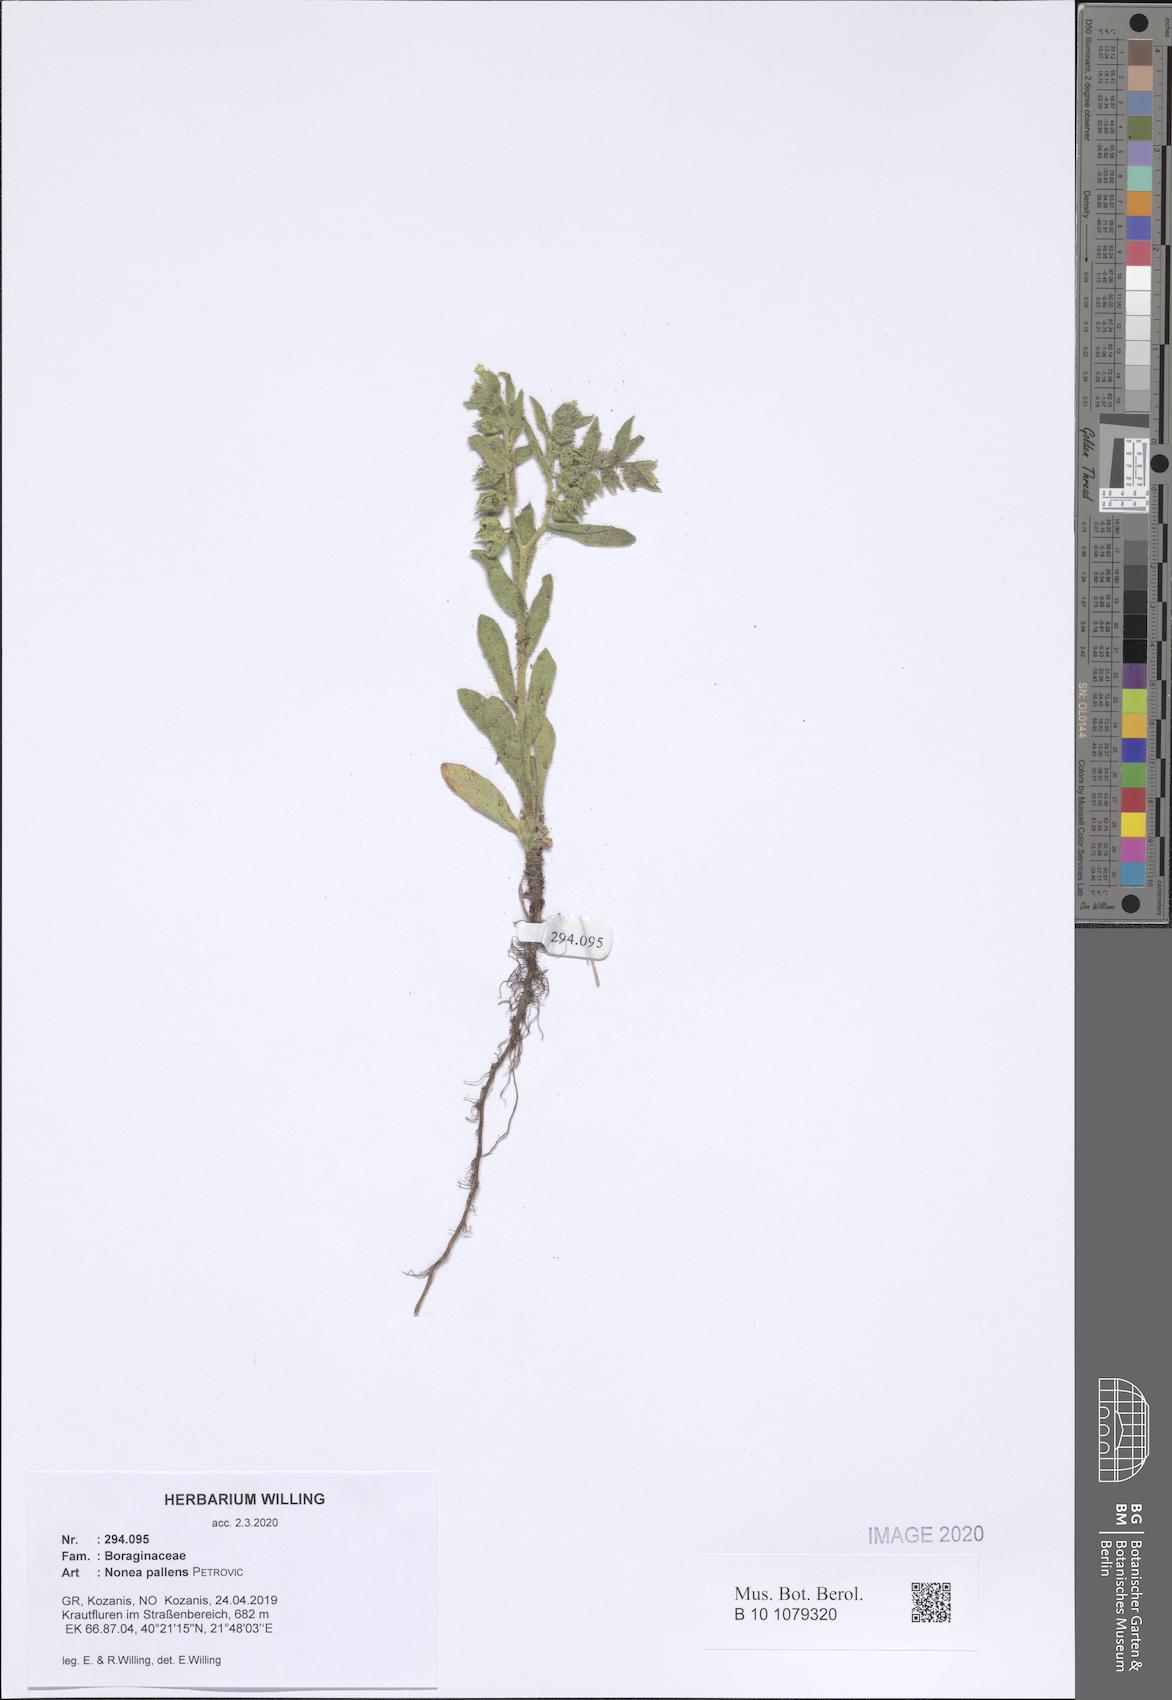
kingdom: Plantae
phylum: Tracheophyta
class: Magnoliopsida
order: Boraginales
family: Boraginaceae
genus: Nonea
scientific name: Nonea pallens
